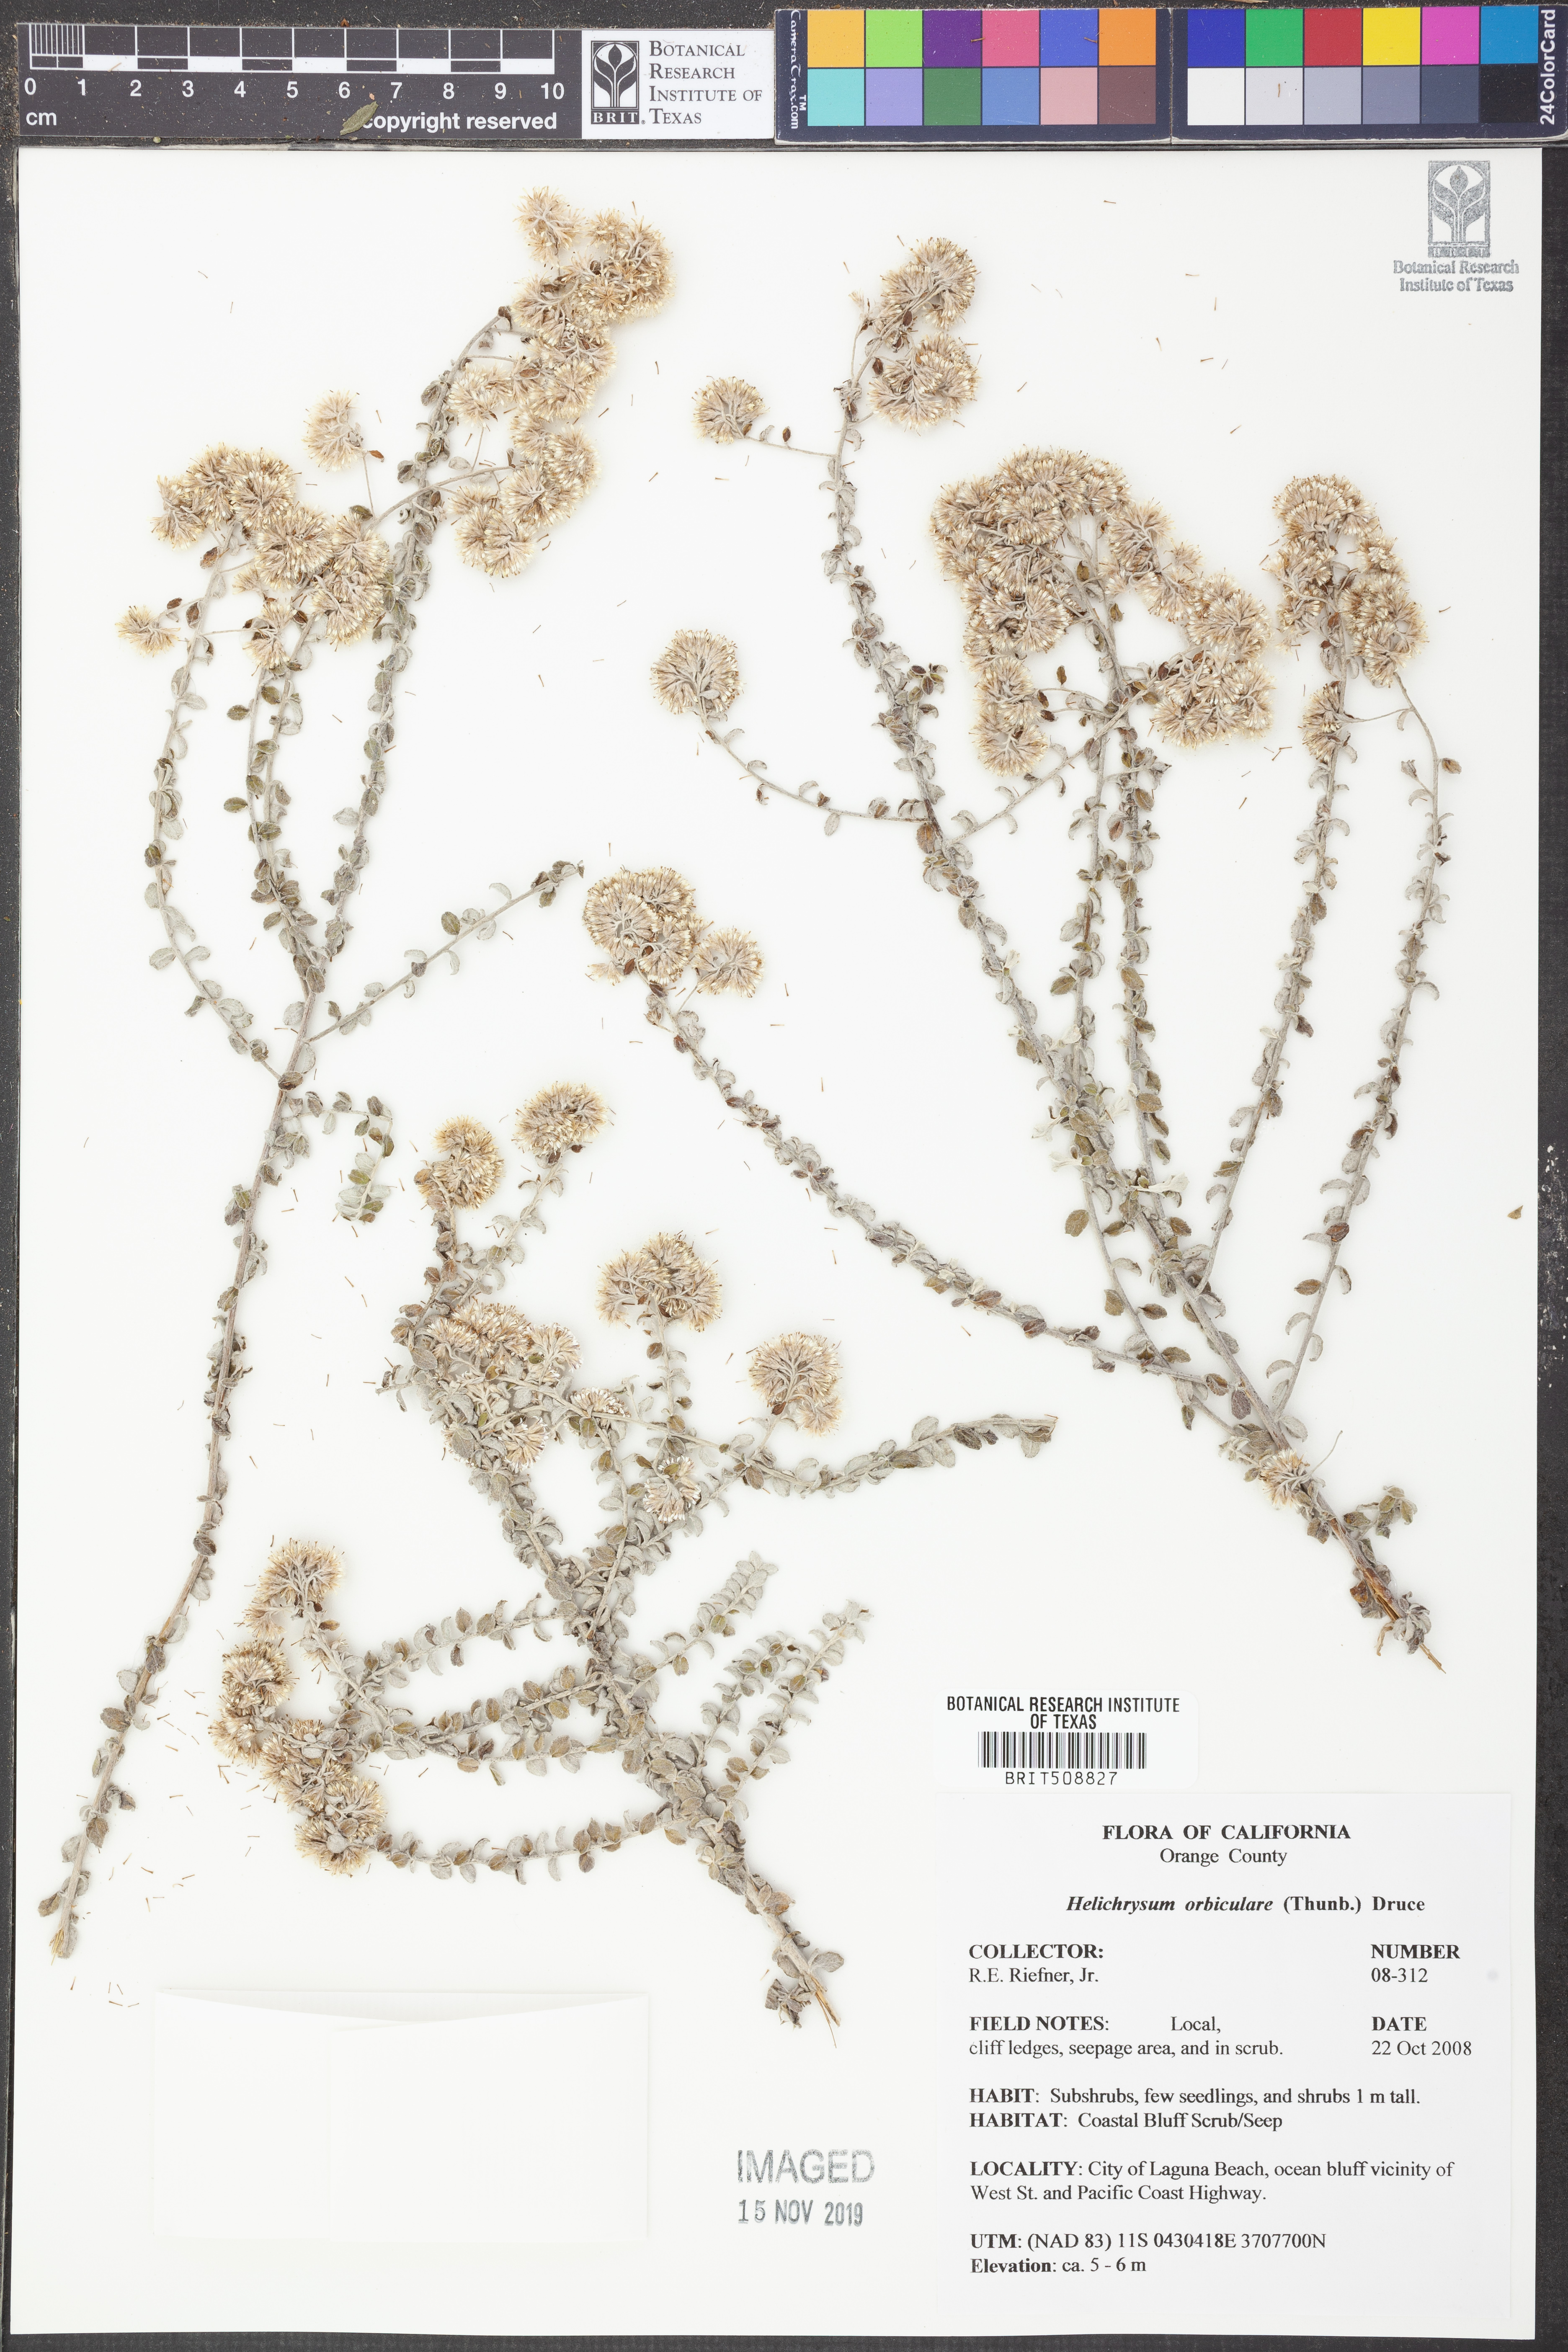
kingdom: Plantae
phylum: Tracheophyta
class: Magnoliopsida
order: Asterales
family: Asteraceae
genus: Plecostachys
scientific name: Plecostachys serpyllifolia
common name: Petite licorice
